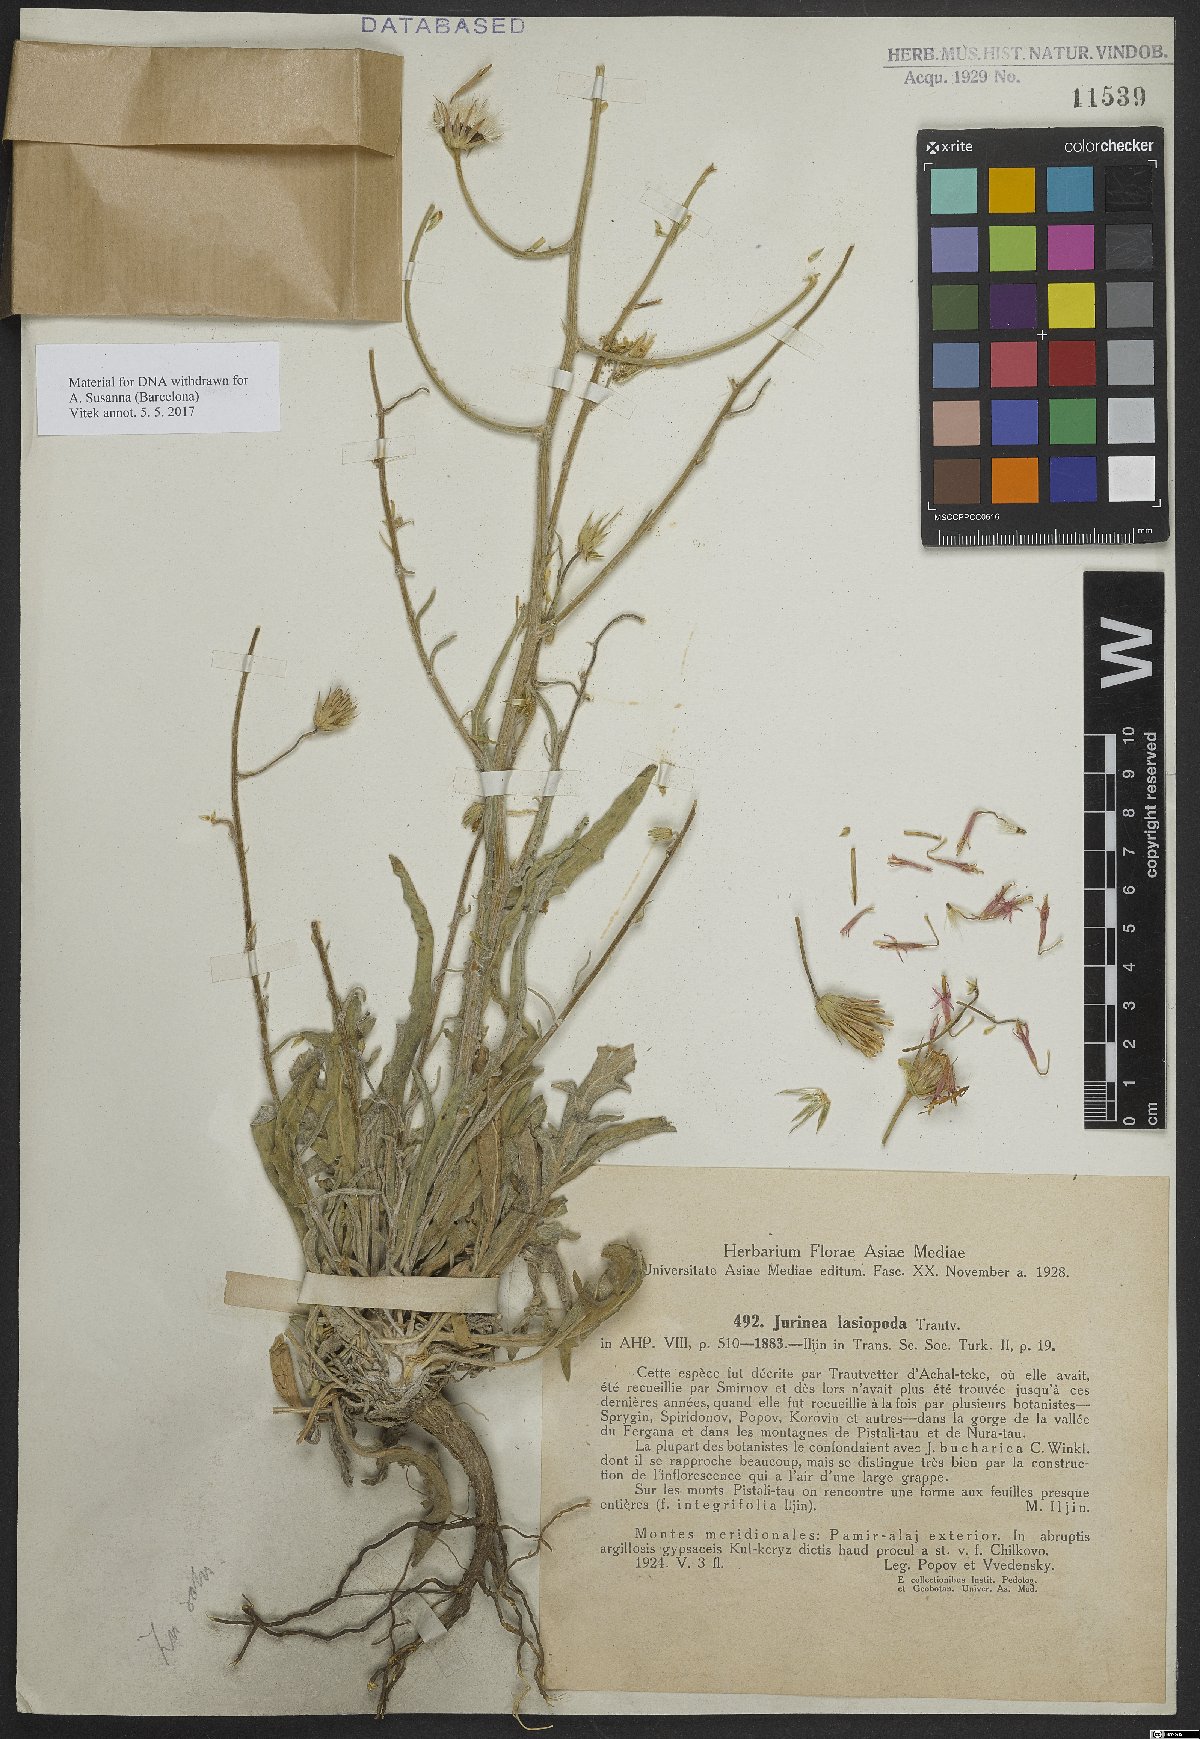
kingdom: Plantae
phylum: Tracheophyta
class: Magnoliopsida
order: Asterales
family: Asteraceae
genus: Jurinea
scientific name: Jurinea lasiopoda
